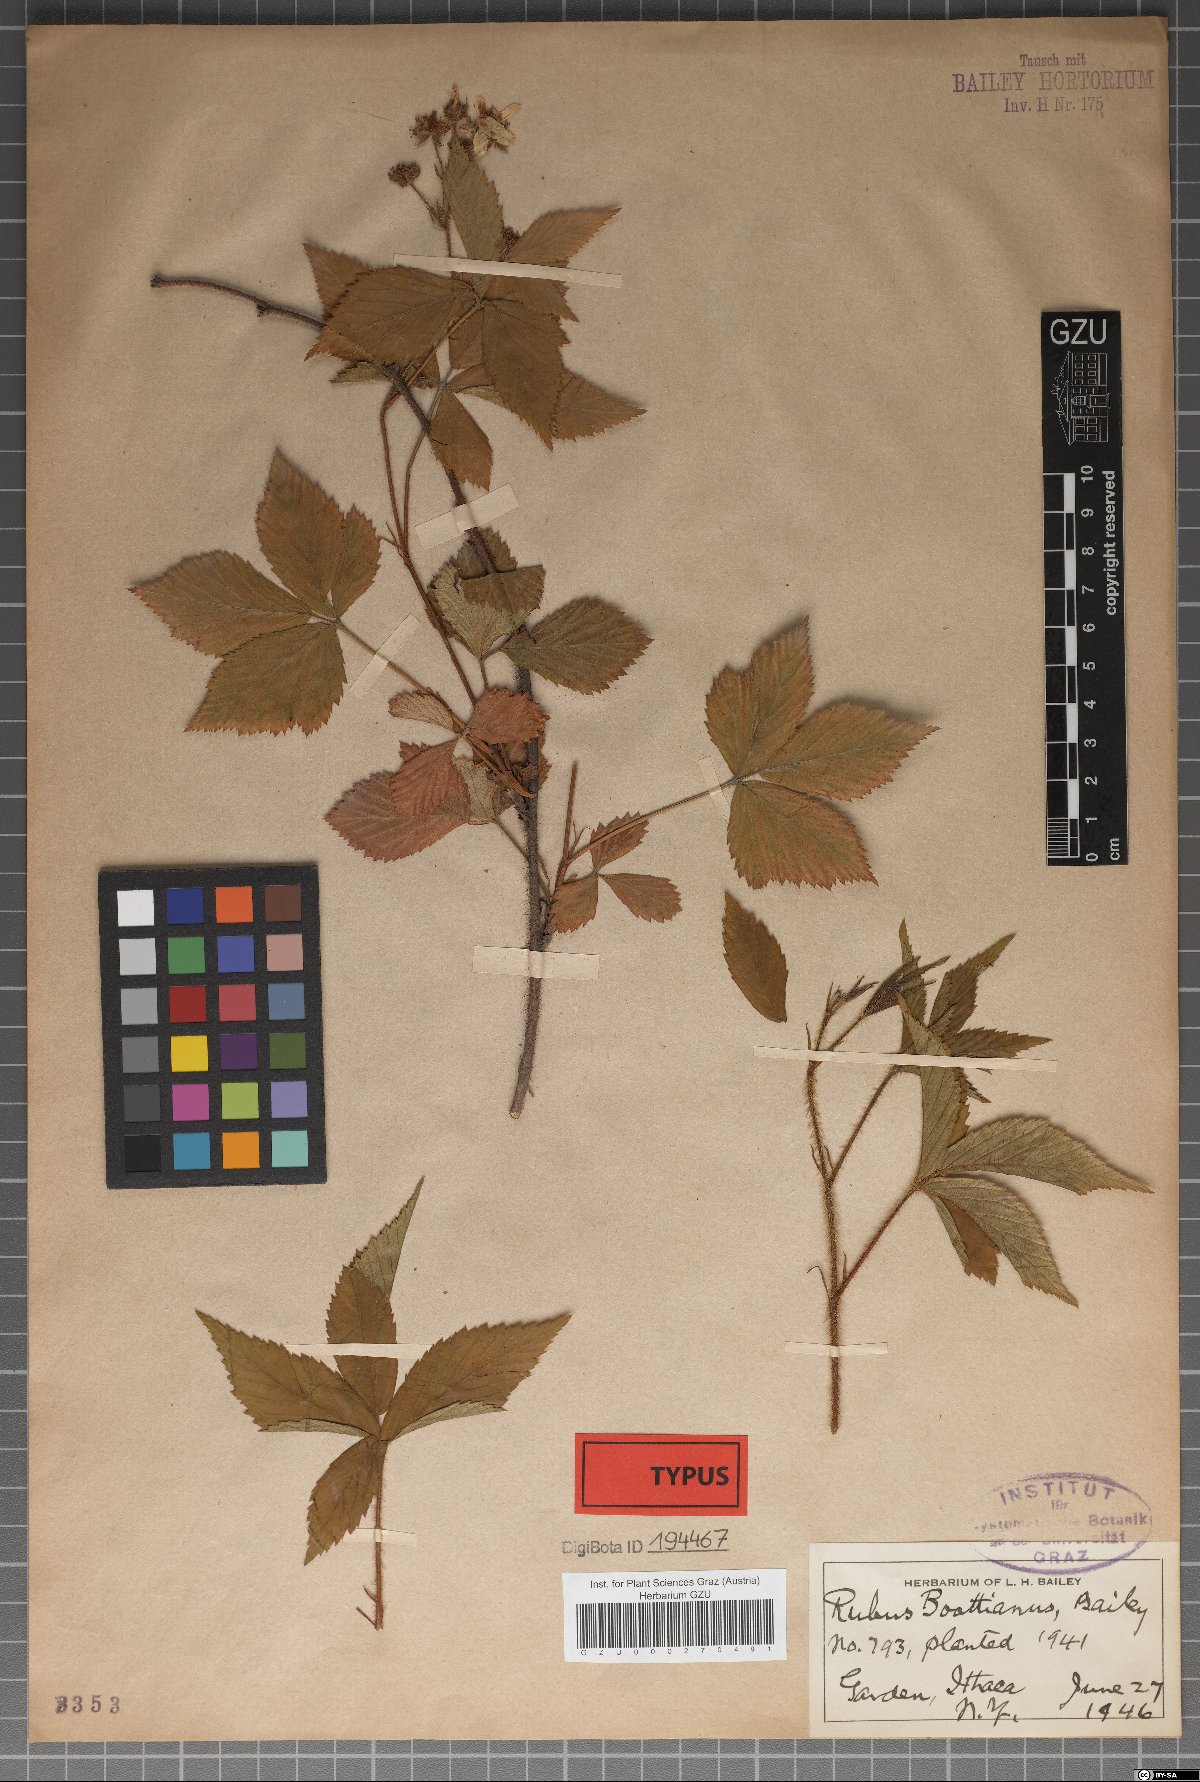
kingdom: Plantae
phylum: Tracheophyta
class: Magnoliopsida
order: Rosales
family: Rosaceae
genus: Rubus
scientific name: Rubus notatus
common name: Bristle berry
